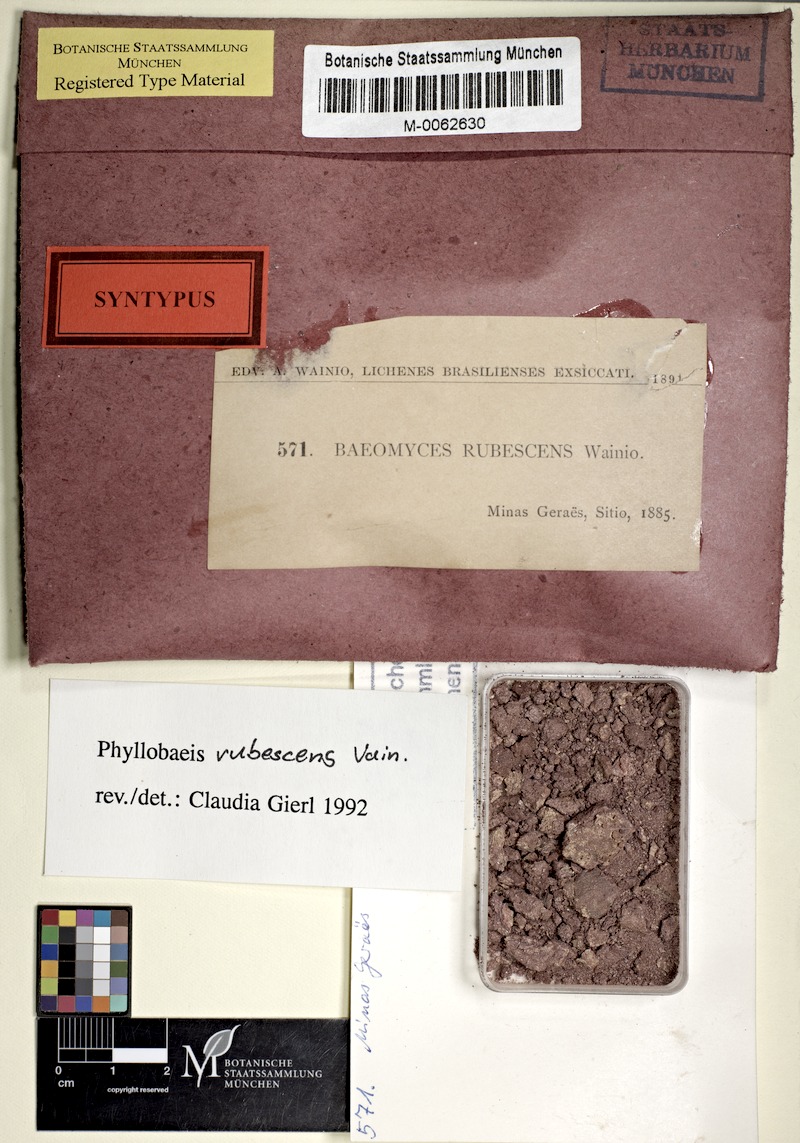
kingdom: Fungi
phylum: Ascomycota
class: Lecanoromycetes
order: Baeomycetales
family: Baeomycetaceae
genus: Phyllobaeis
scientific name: Phyllobaeis rubescens
